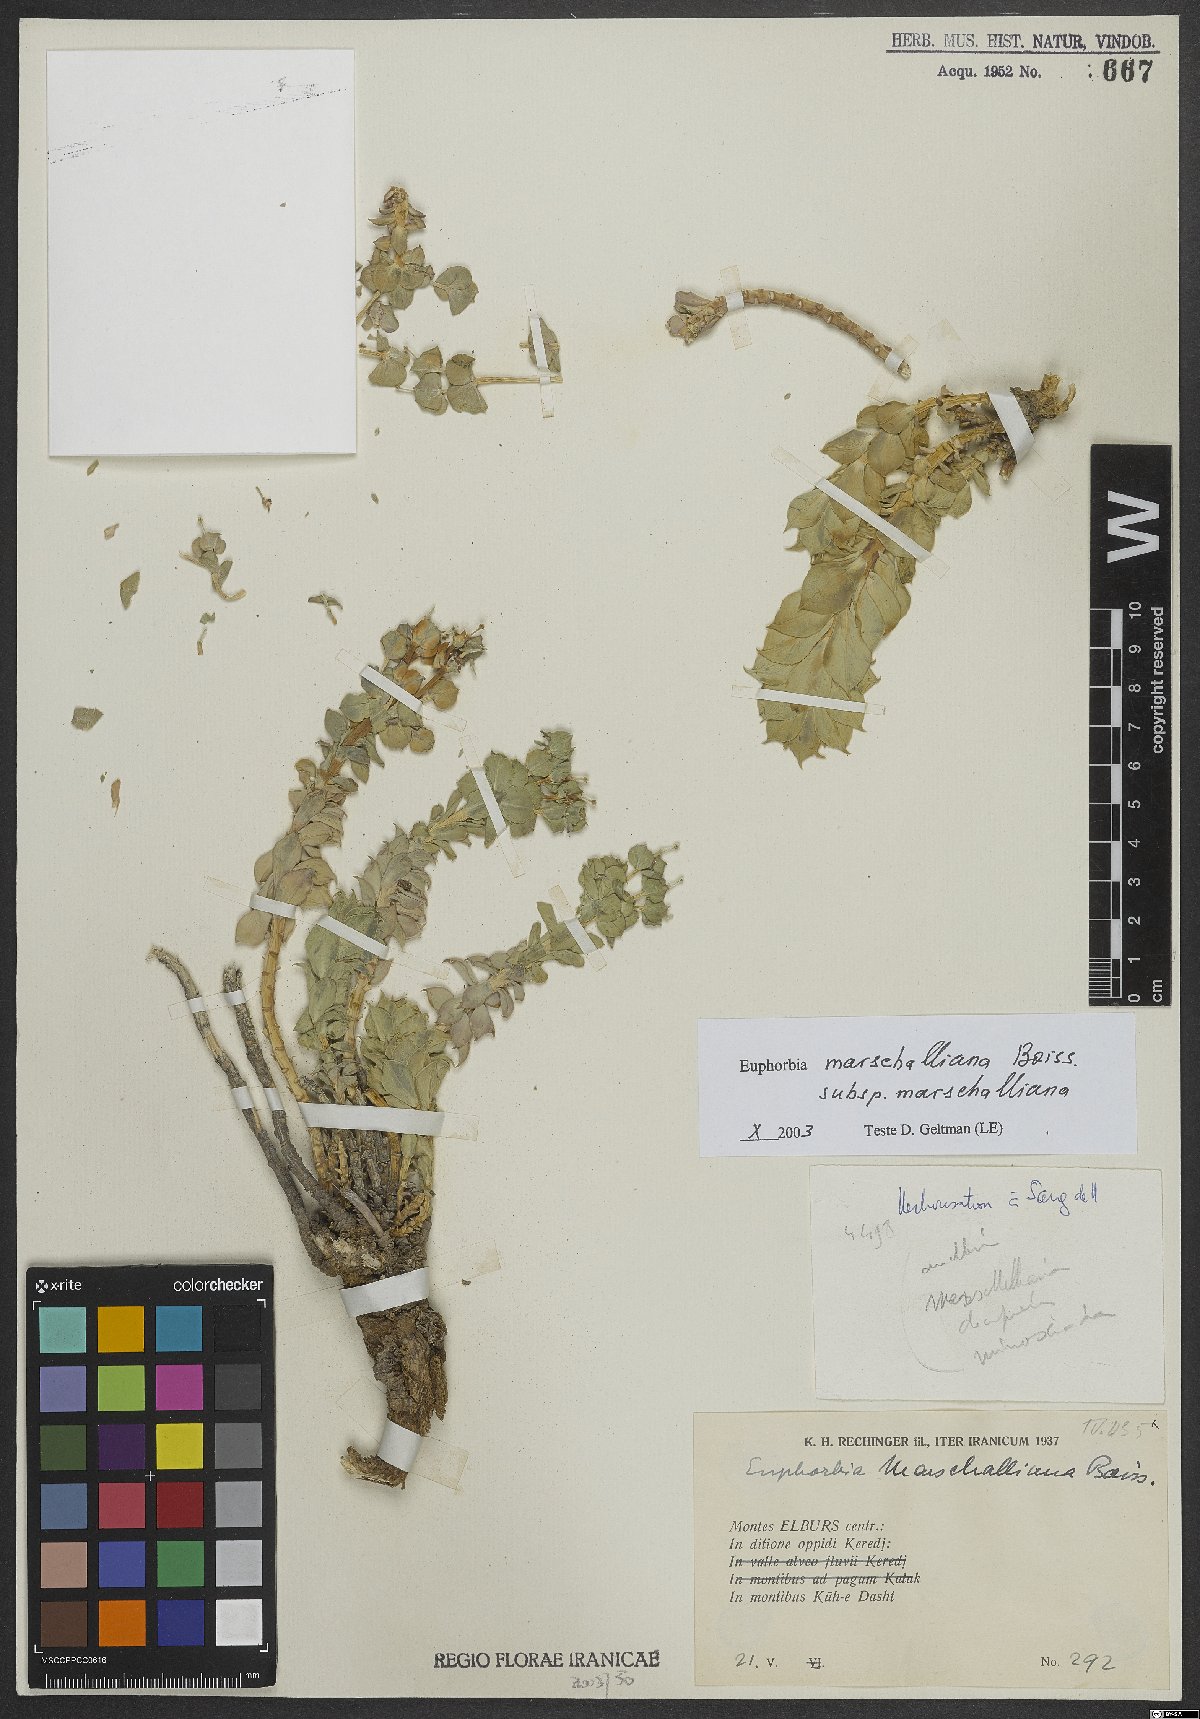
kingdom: Plantae
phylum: Tracheophyta
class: Magnoliopsida
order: Malpighiales
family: Euphorbiaceae
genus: Euphorbia
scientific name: Euphorbia marschalliana
